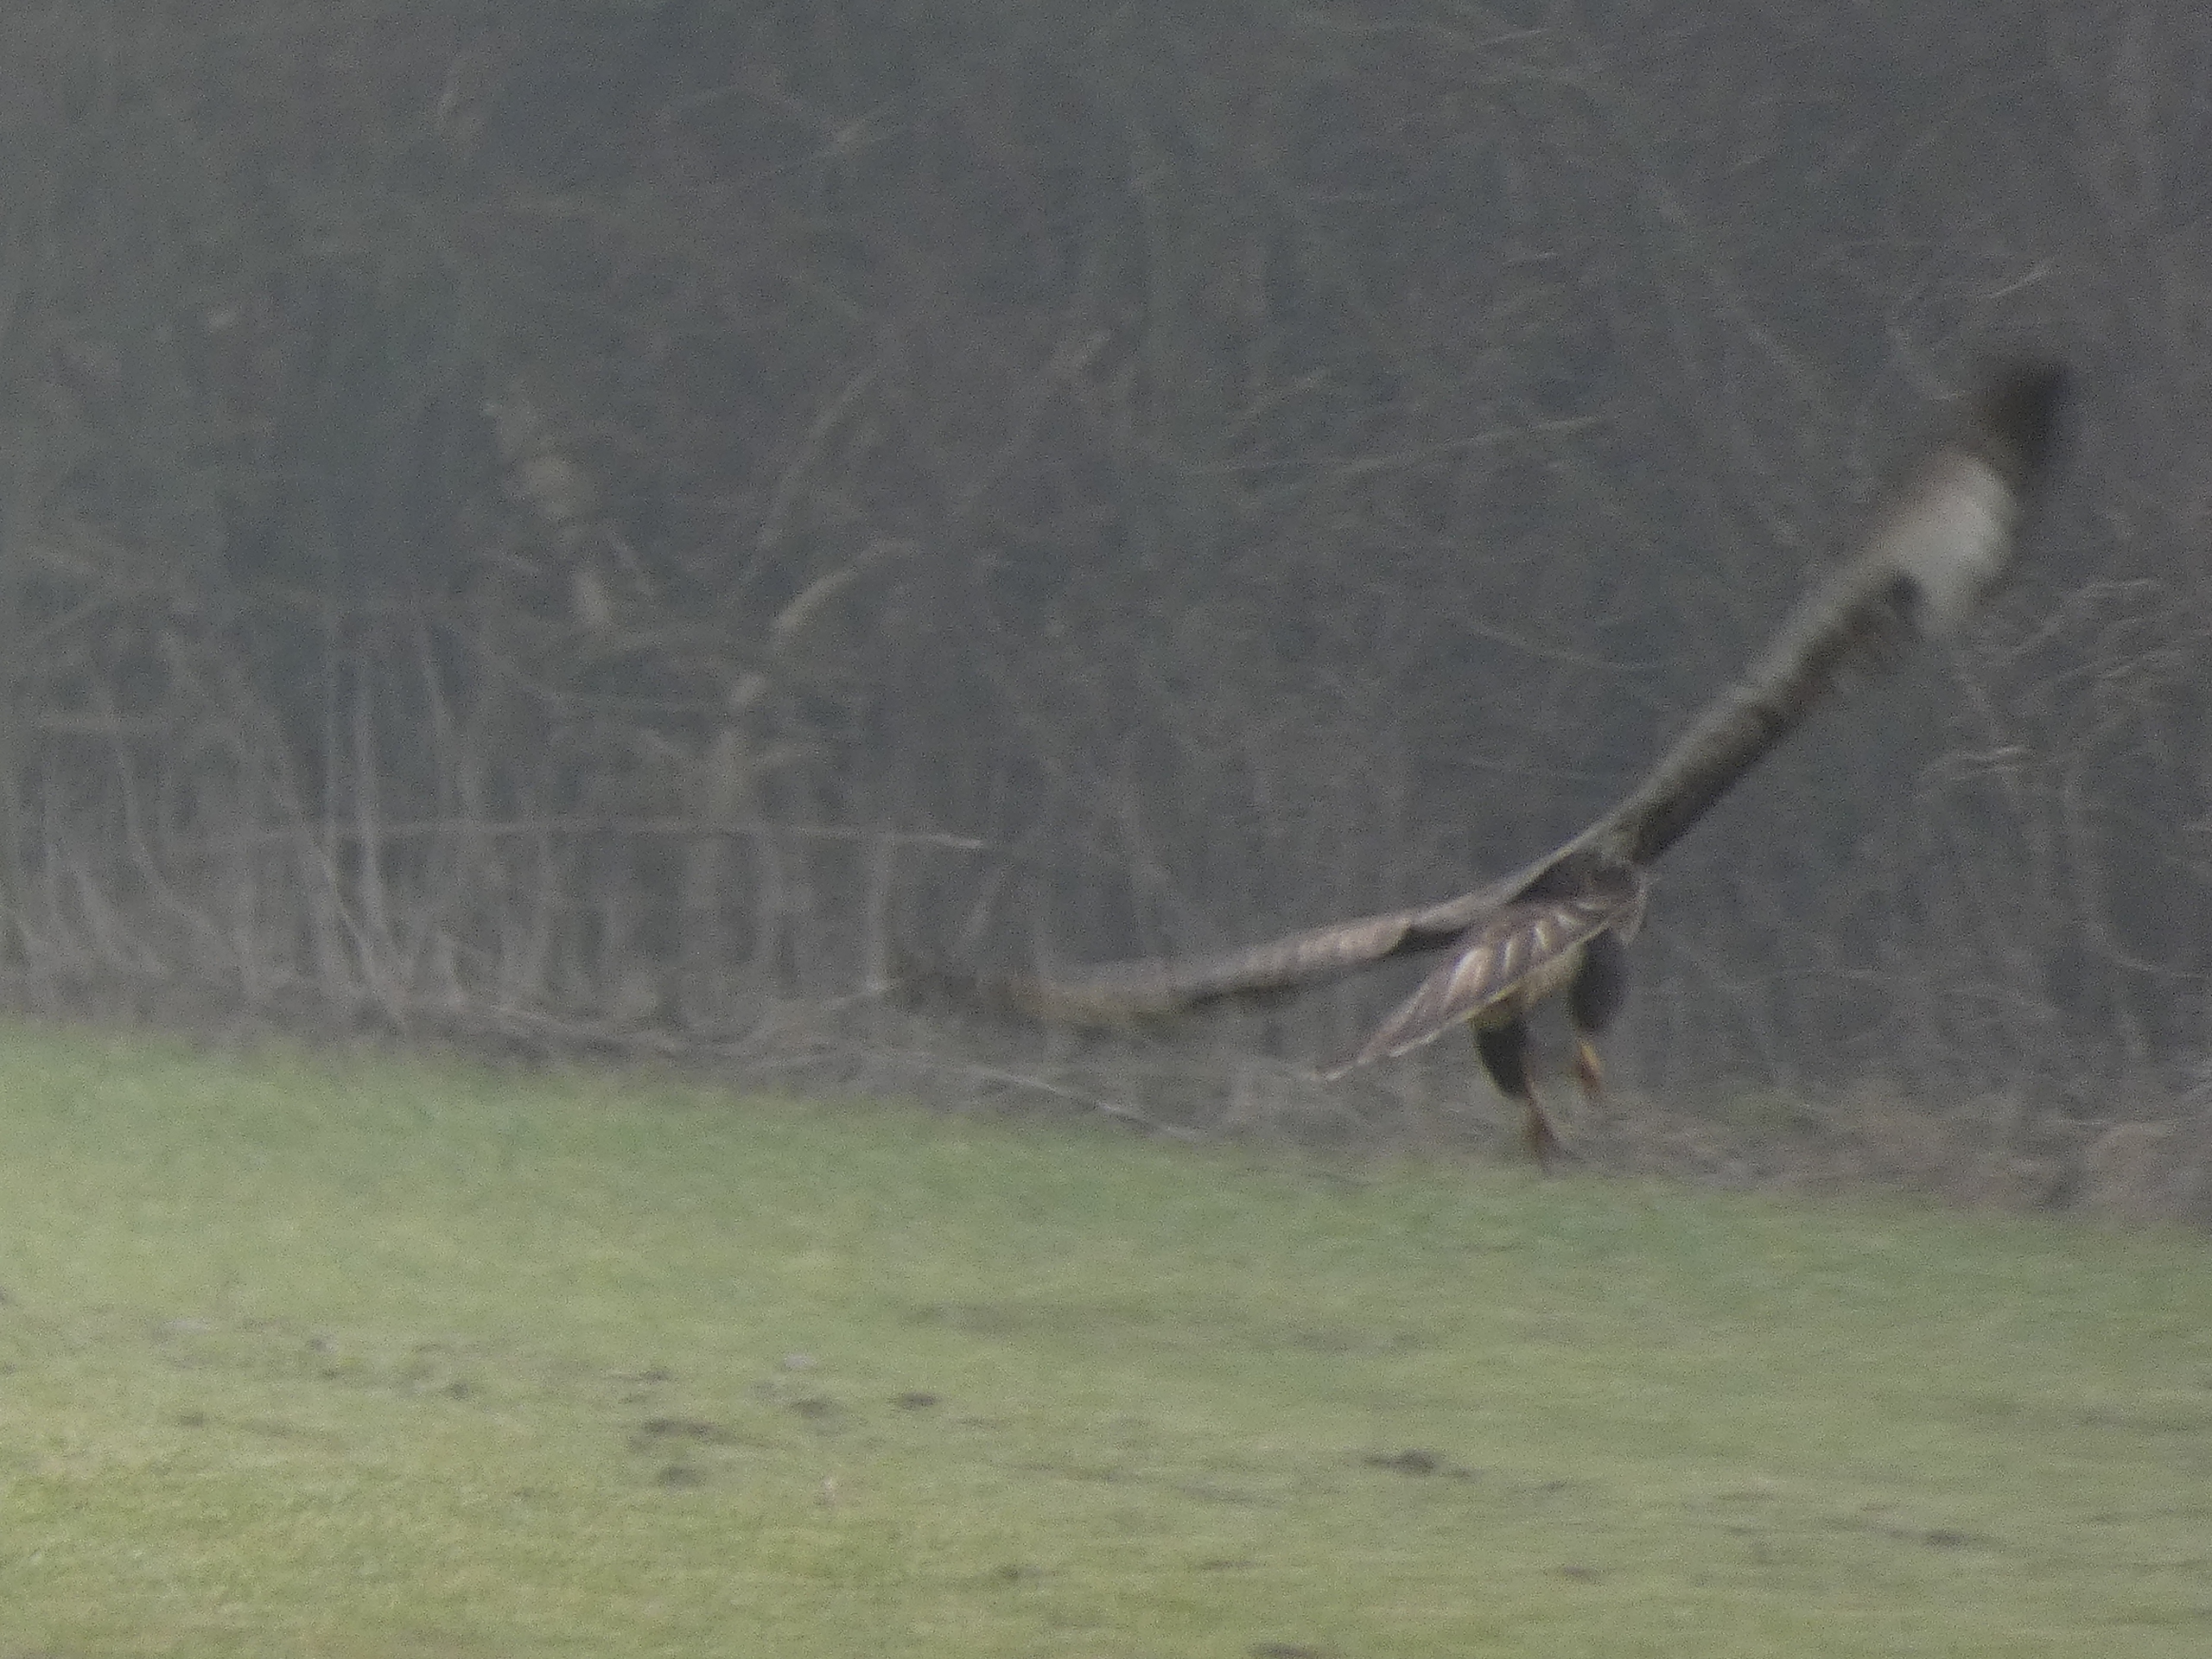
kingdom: Animalia
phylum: Chordata
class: Aves
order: Accipitriformes
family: Accipitridae
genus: Buteo
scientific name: Buteo buteo
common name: Musvåge
